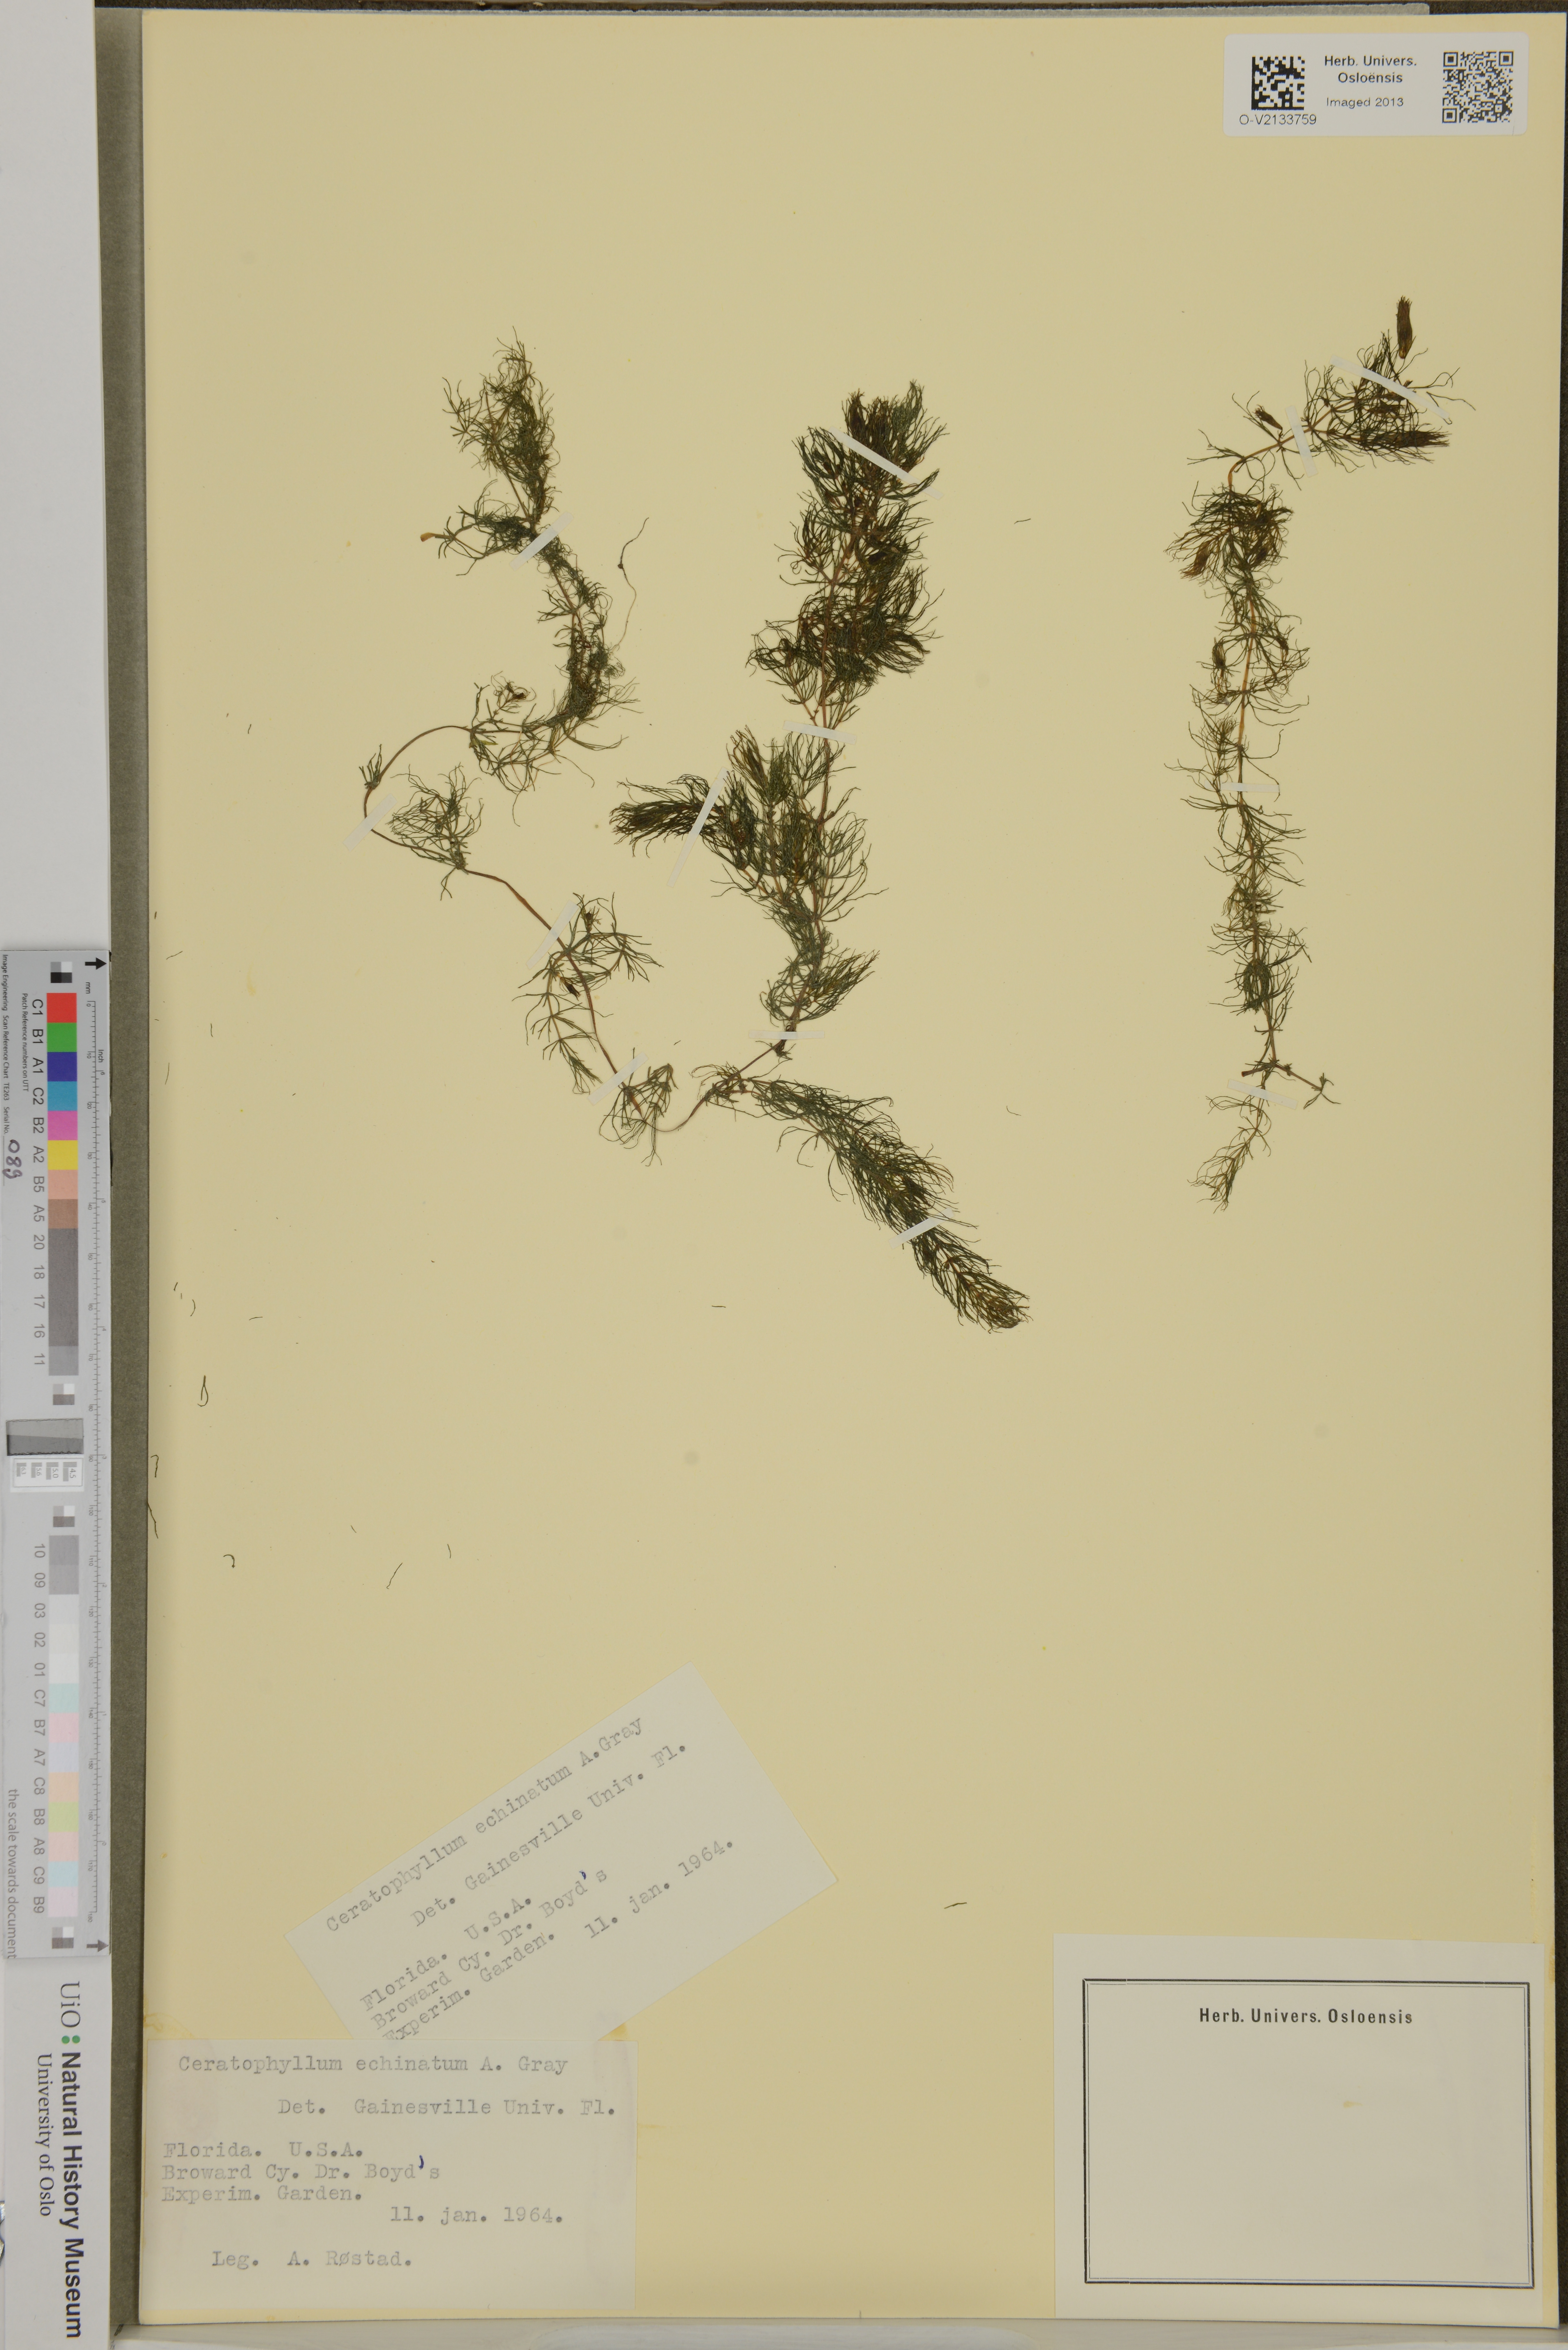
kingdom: Plantae
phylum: Tracheophyta
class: Magnoliopsida
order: Ceratophyllales
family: Ceratophyllaceae
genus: Ceratophyllum
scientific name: Ceratophyllum echinatum
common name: Prickly coontail
